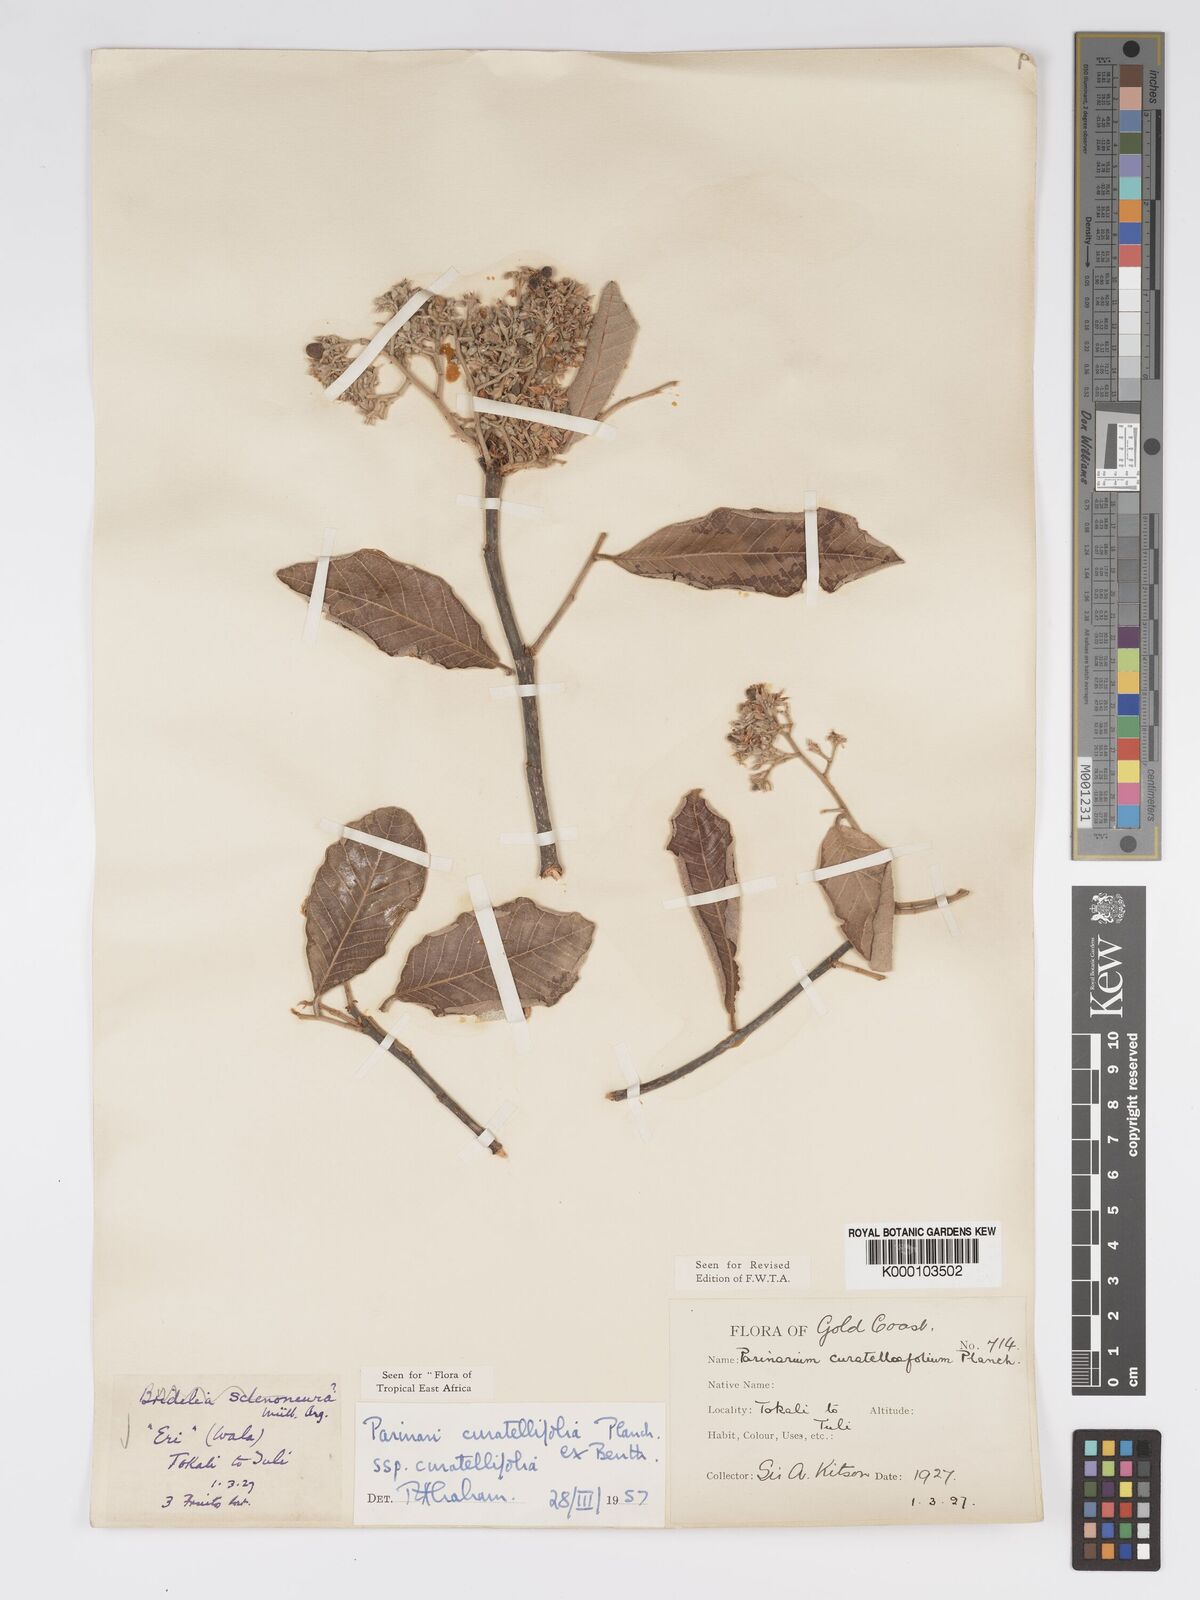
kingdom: Plantae
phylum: Tracheophyta
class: Magnoliopsida
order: Malpighiales
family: Chrysobalanaceae
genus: Parinari
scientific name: Parinari curatellifolia
